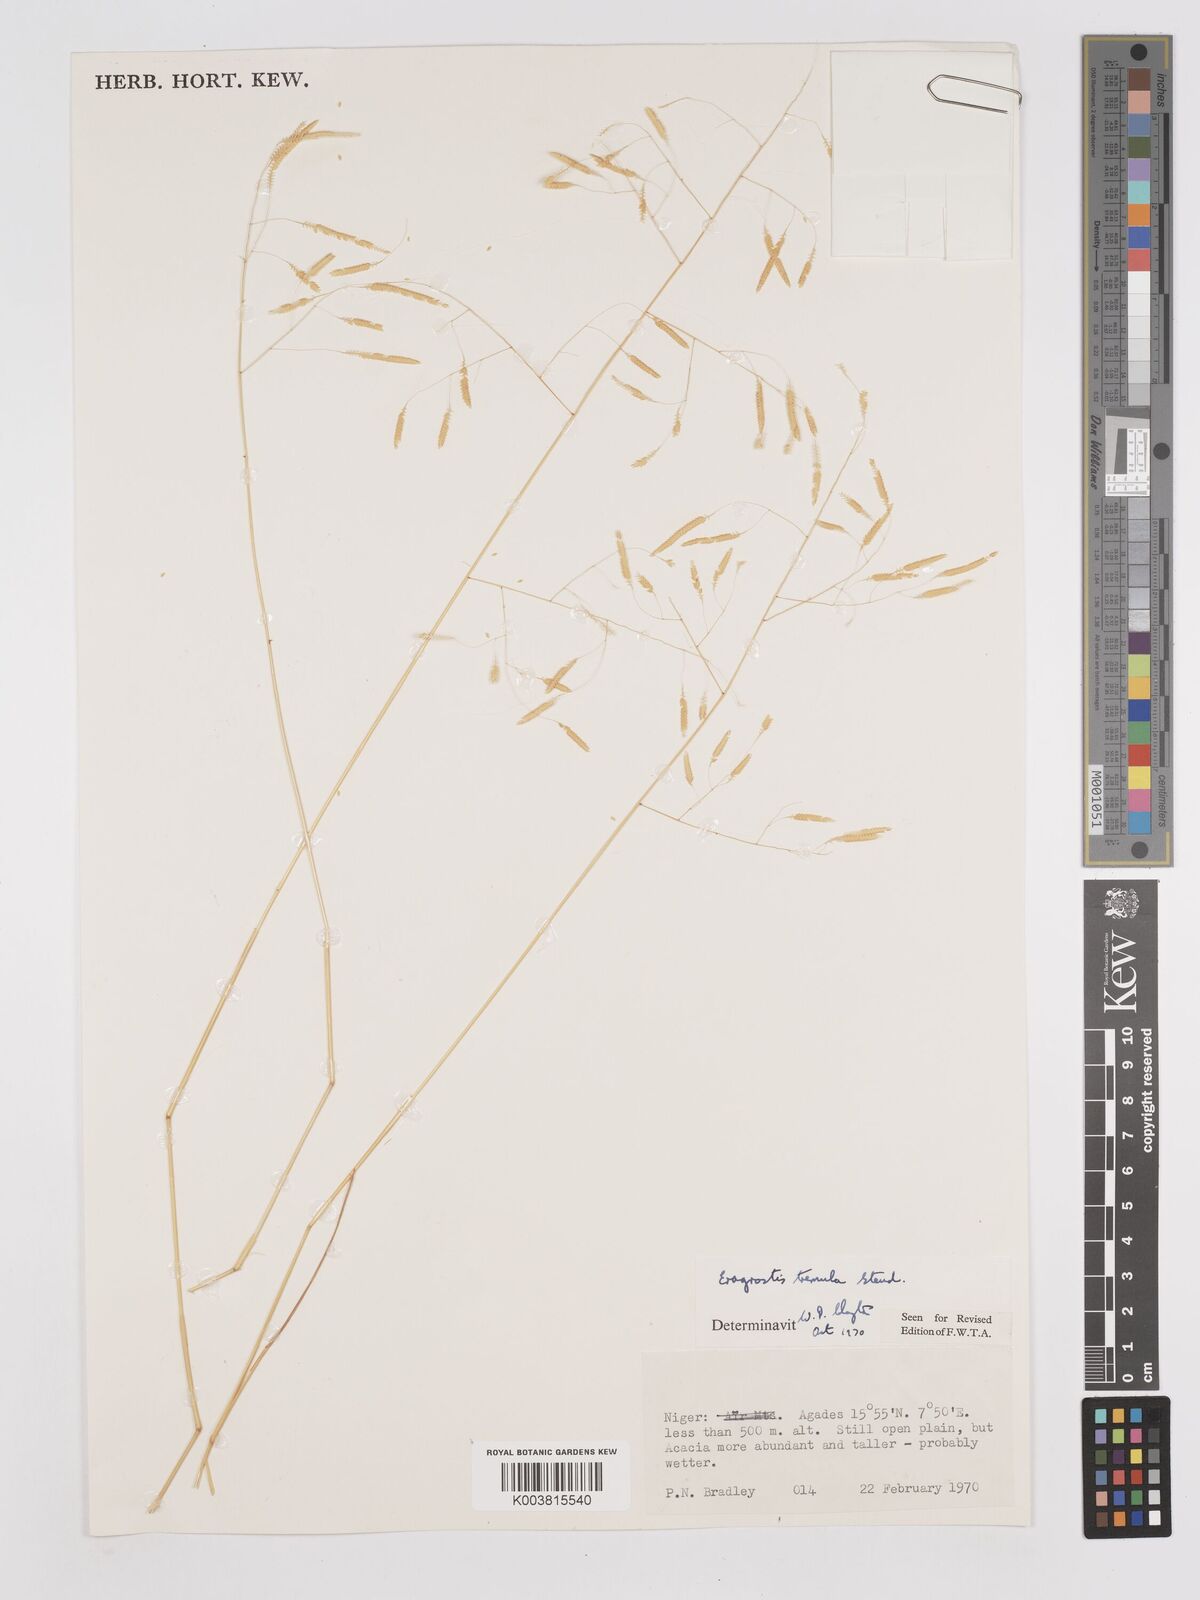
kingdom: Plantae
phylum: Tracheophyta
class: Liliopsida
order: Poales
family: Poaceae
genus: Eragrostis
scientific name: Eragrostis tremula
